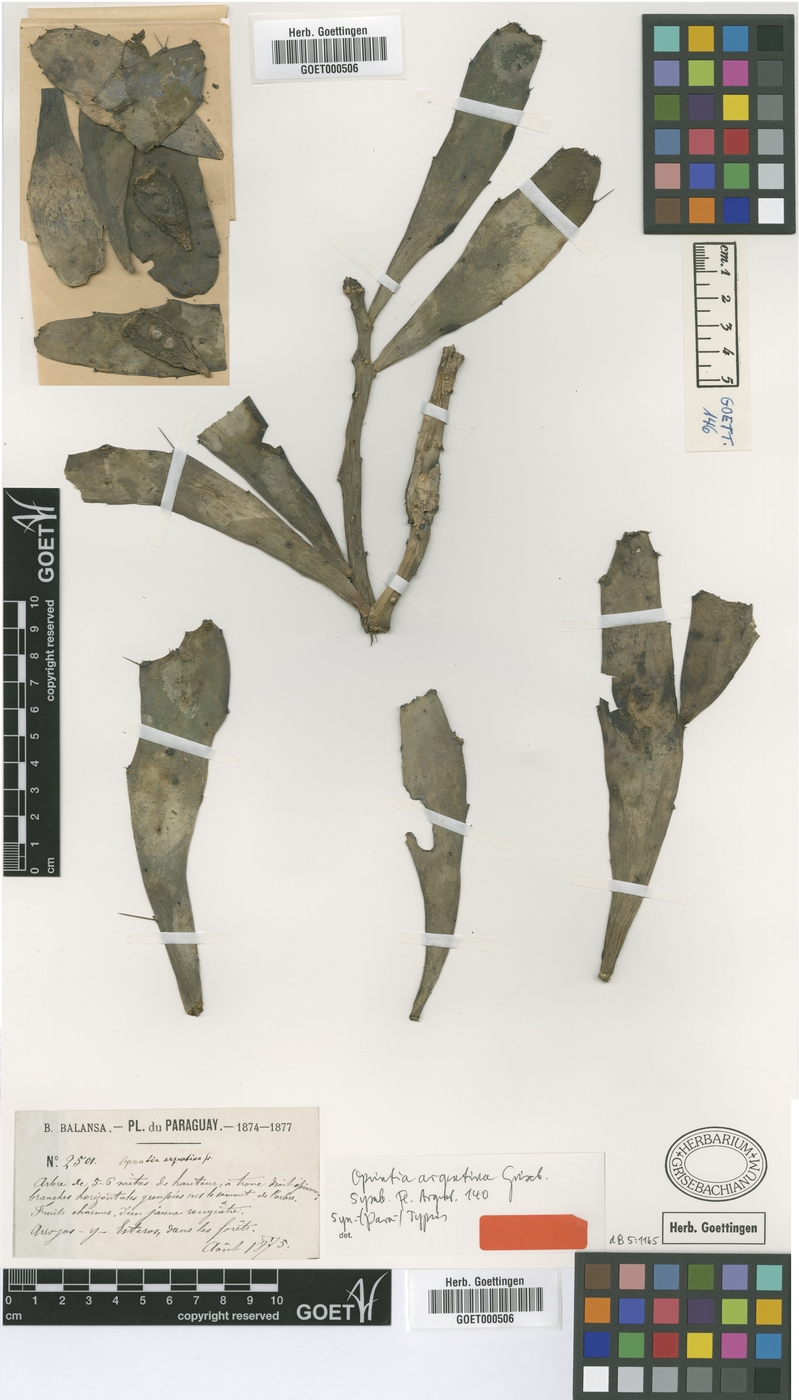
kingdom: Plantae
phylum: Tracheophyta
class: Magnoliopsida
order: Caryophyllales
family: Cactaceae
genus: Brasiliopuntia
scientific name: Brasiliopuntia brasiliensis
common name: Brazilian pricklypear
